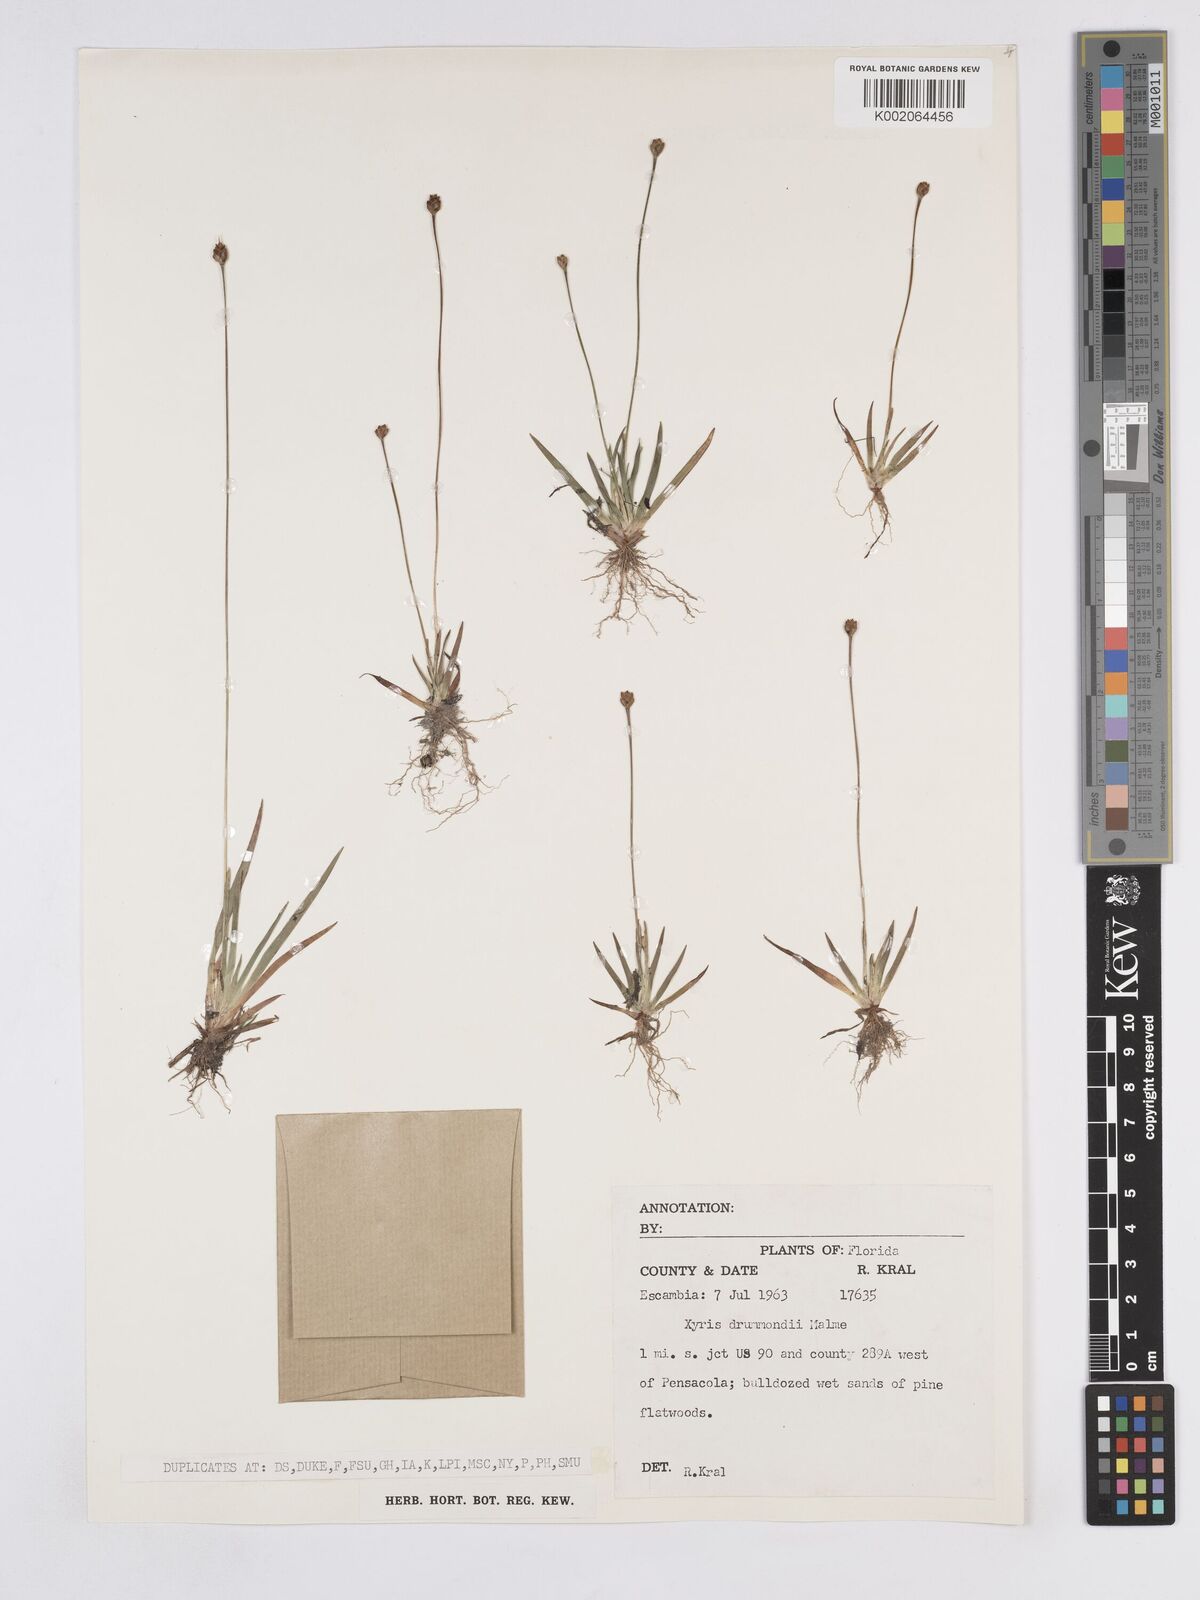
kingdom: Plantae
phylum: Tracheophyta
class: Liliopsida
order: Poales
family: Xyridaceae
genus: Xyris
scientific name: Xyris drummondii
